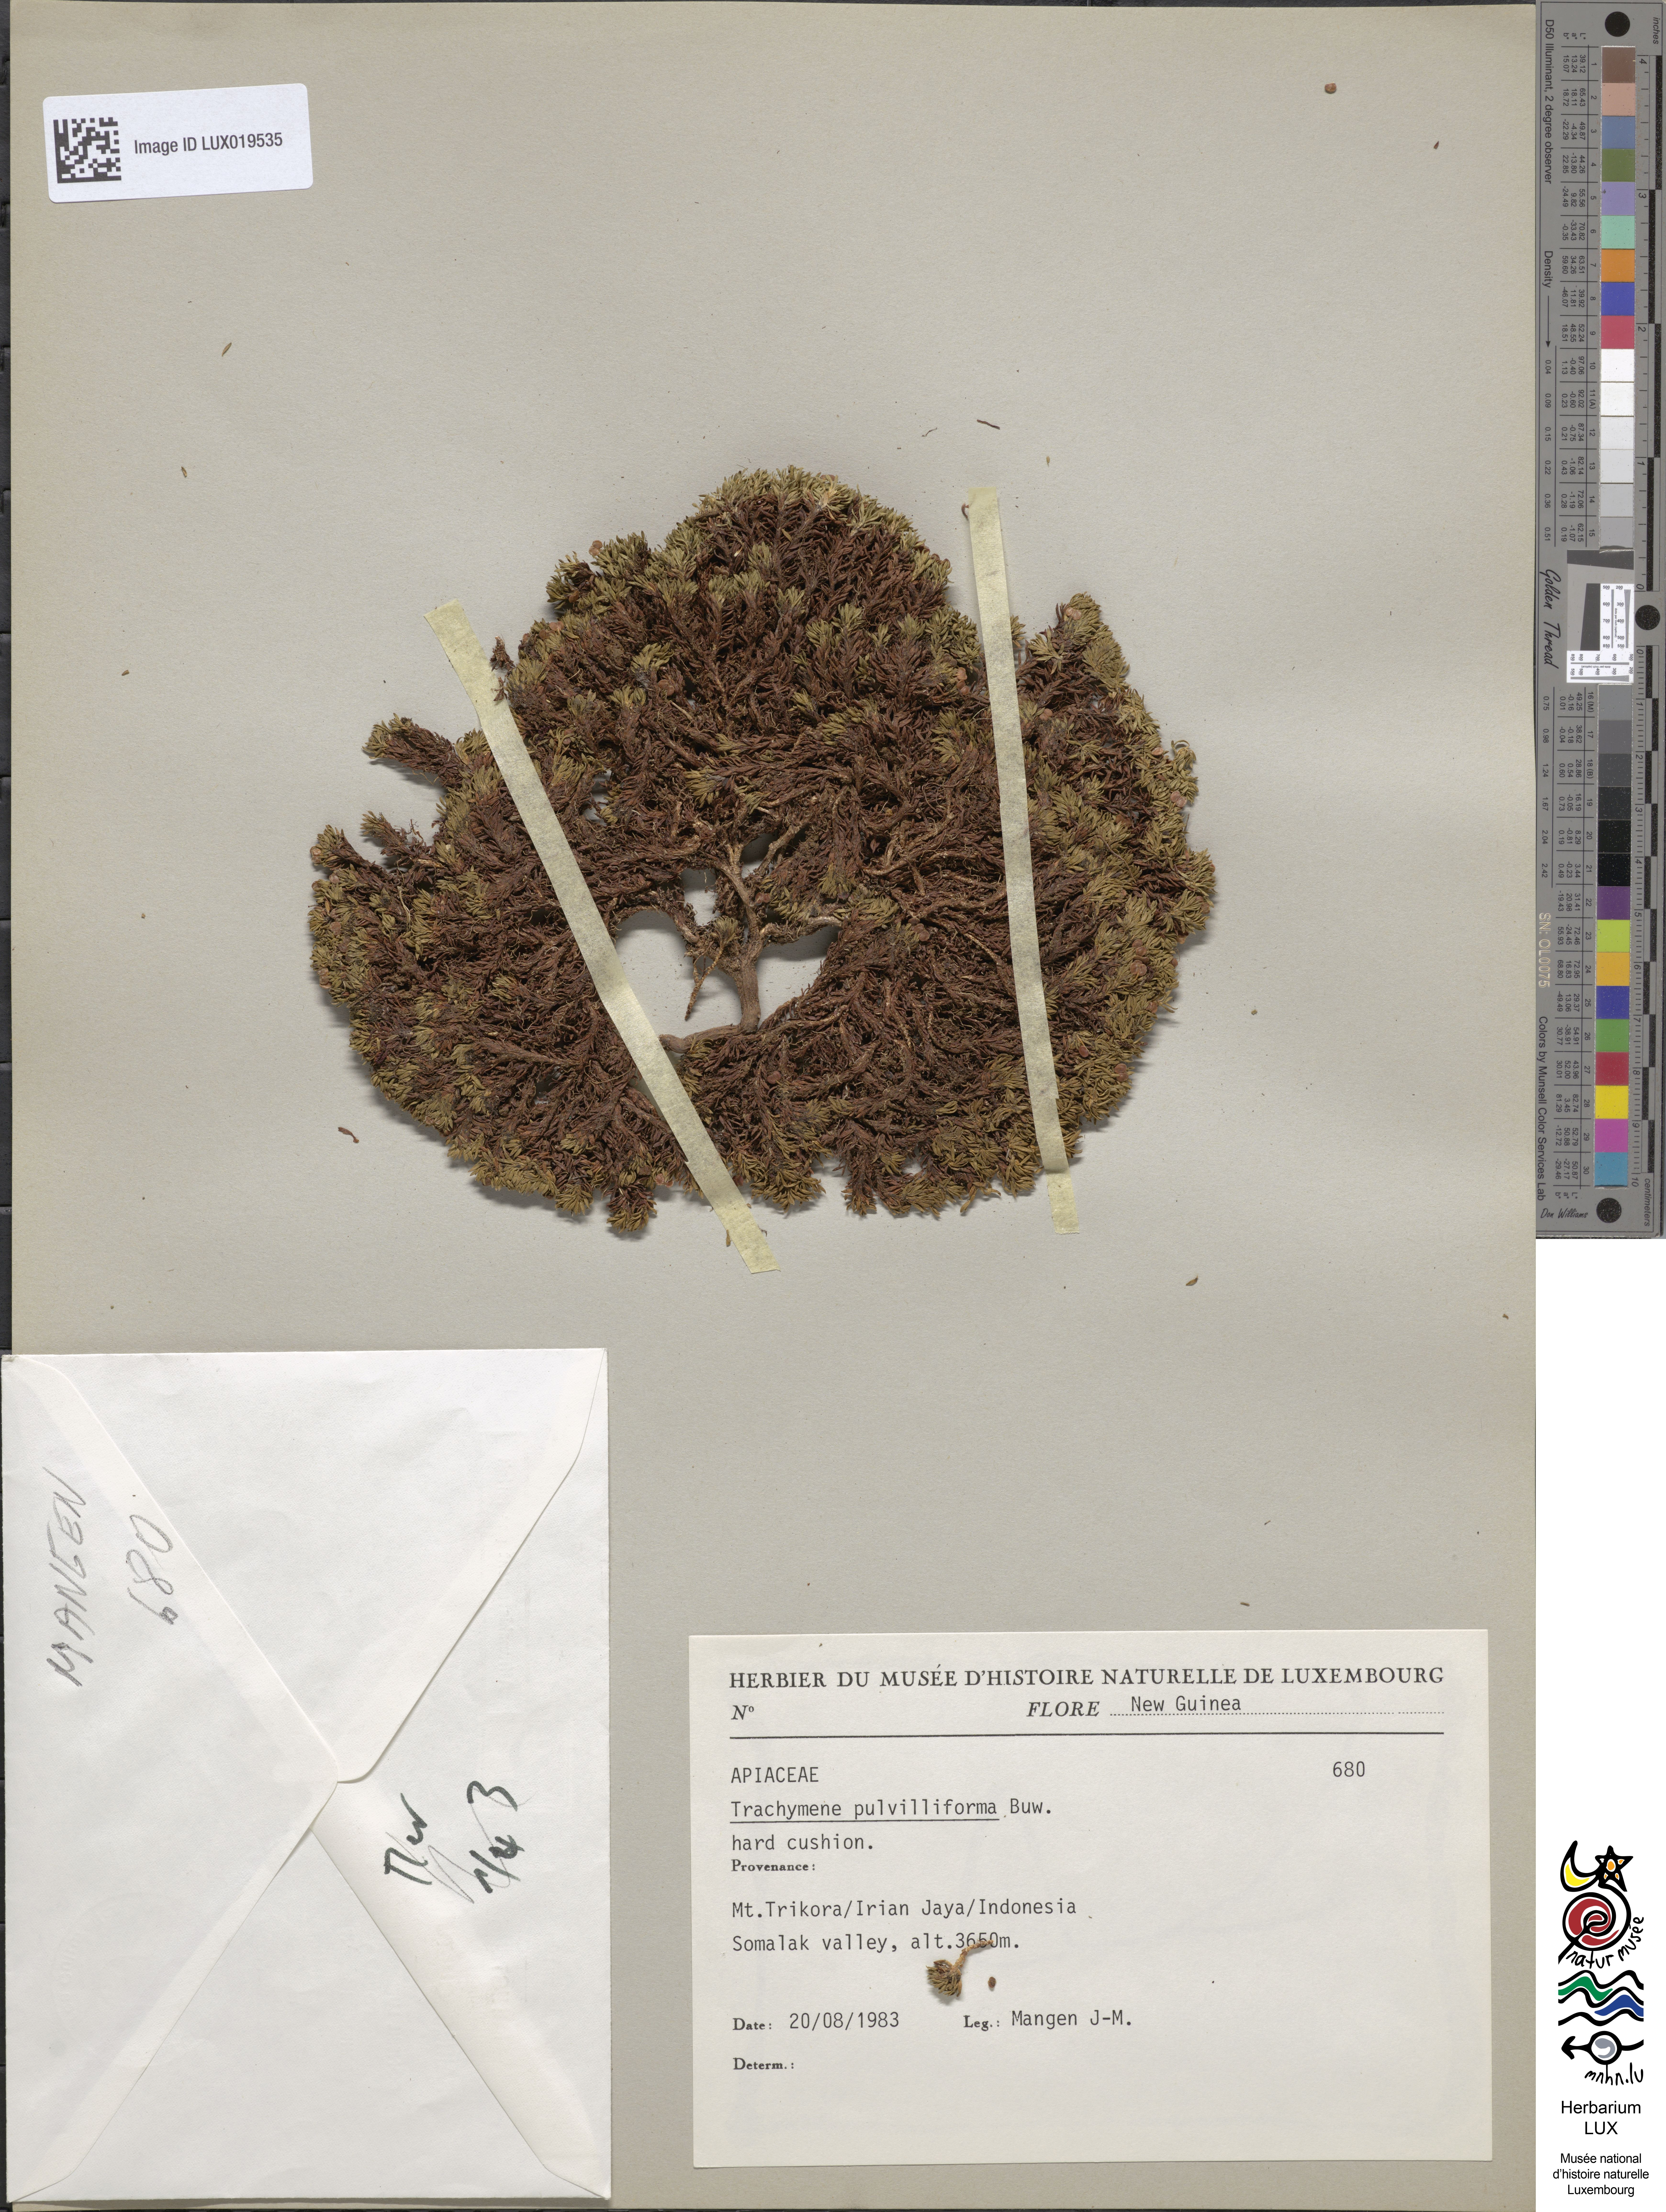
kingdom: Plantae
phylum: Tracheophyta
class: Magnoliopsida
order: Apiales
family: Araliaceae
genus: Trachymene
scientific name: Trachymene pulvilliforma
